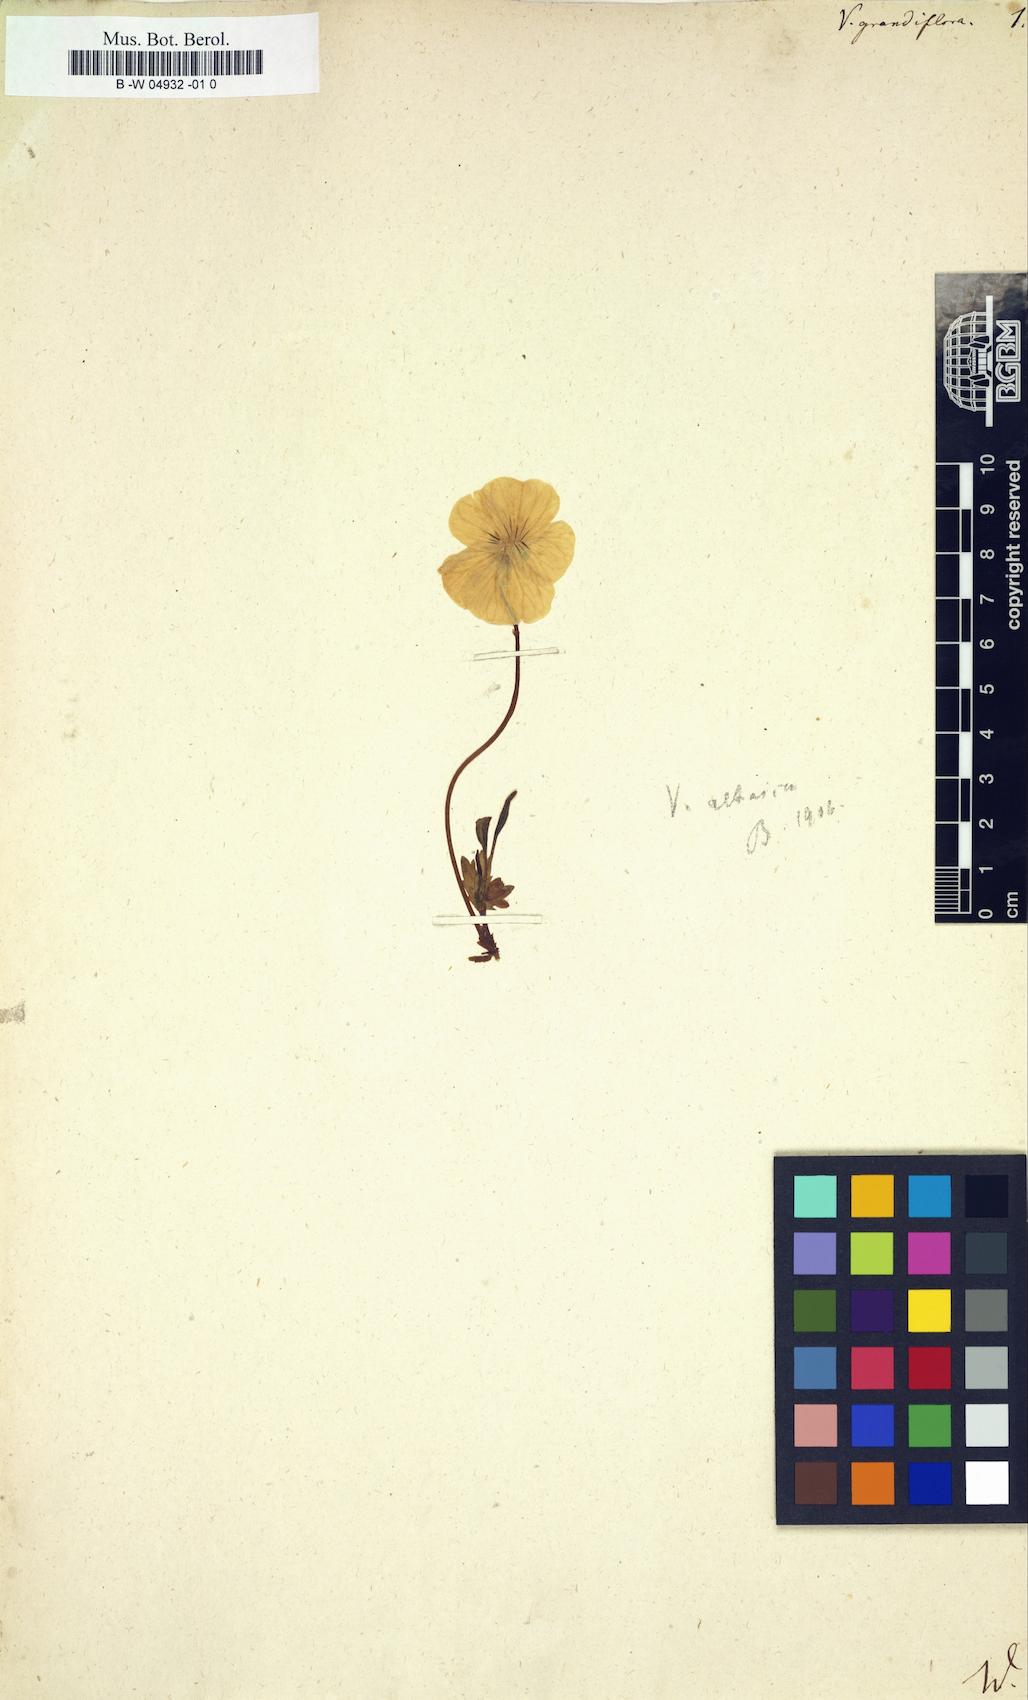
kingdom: Plantae
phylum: Tracheophyta
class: Magnoliopsida
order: Malpighiales
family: Violaceae
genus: Viola
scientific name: Viola lutea
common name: Mountain pansy
